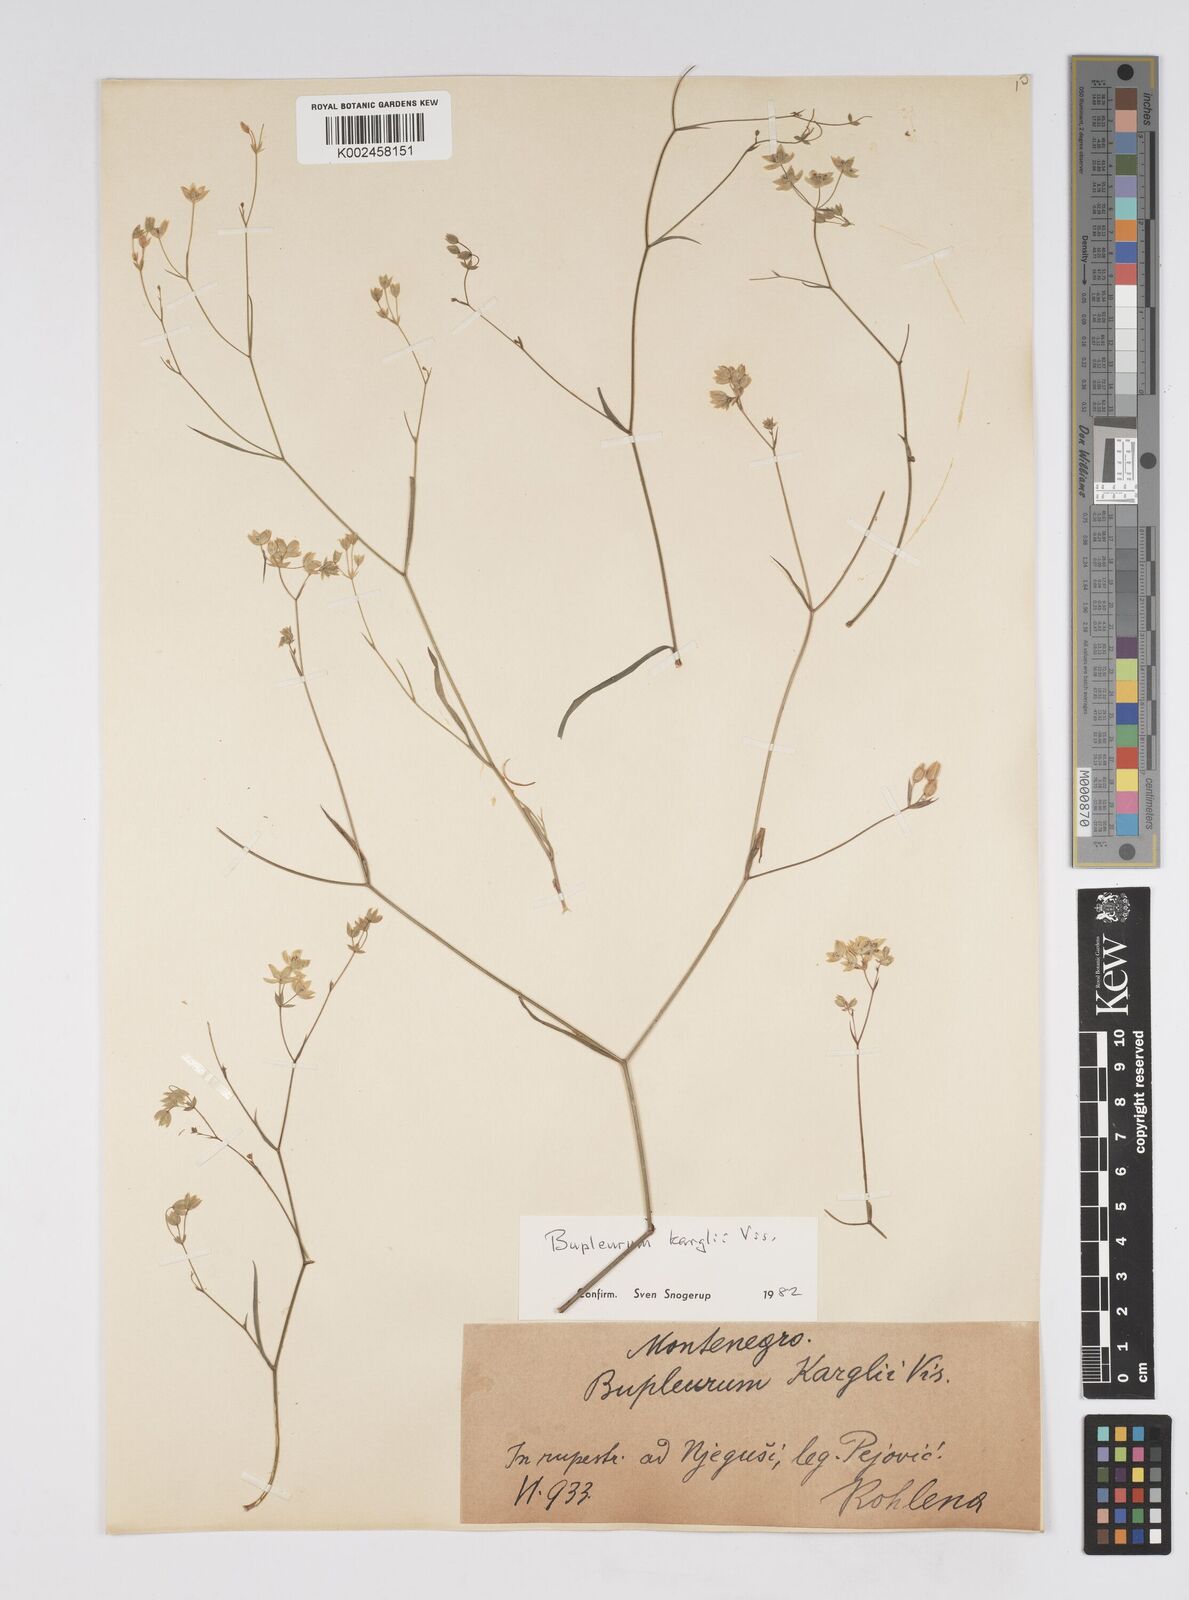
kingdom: Plantae
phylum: Tracheophyta
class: Magnoliopsida
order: Apiales
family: Apiaceae
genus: Bupleurum
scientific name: Bupleurum karglii
